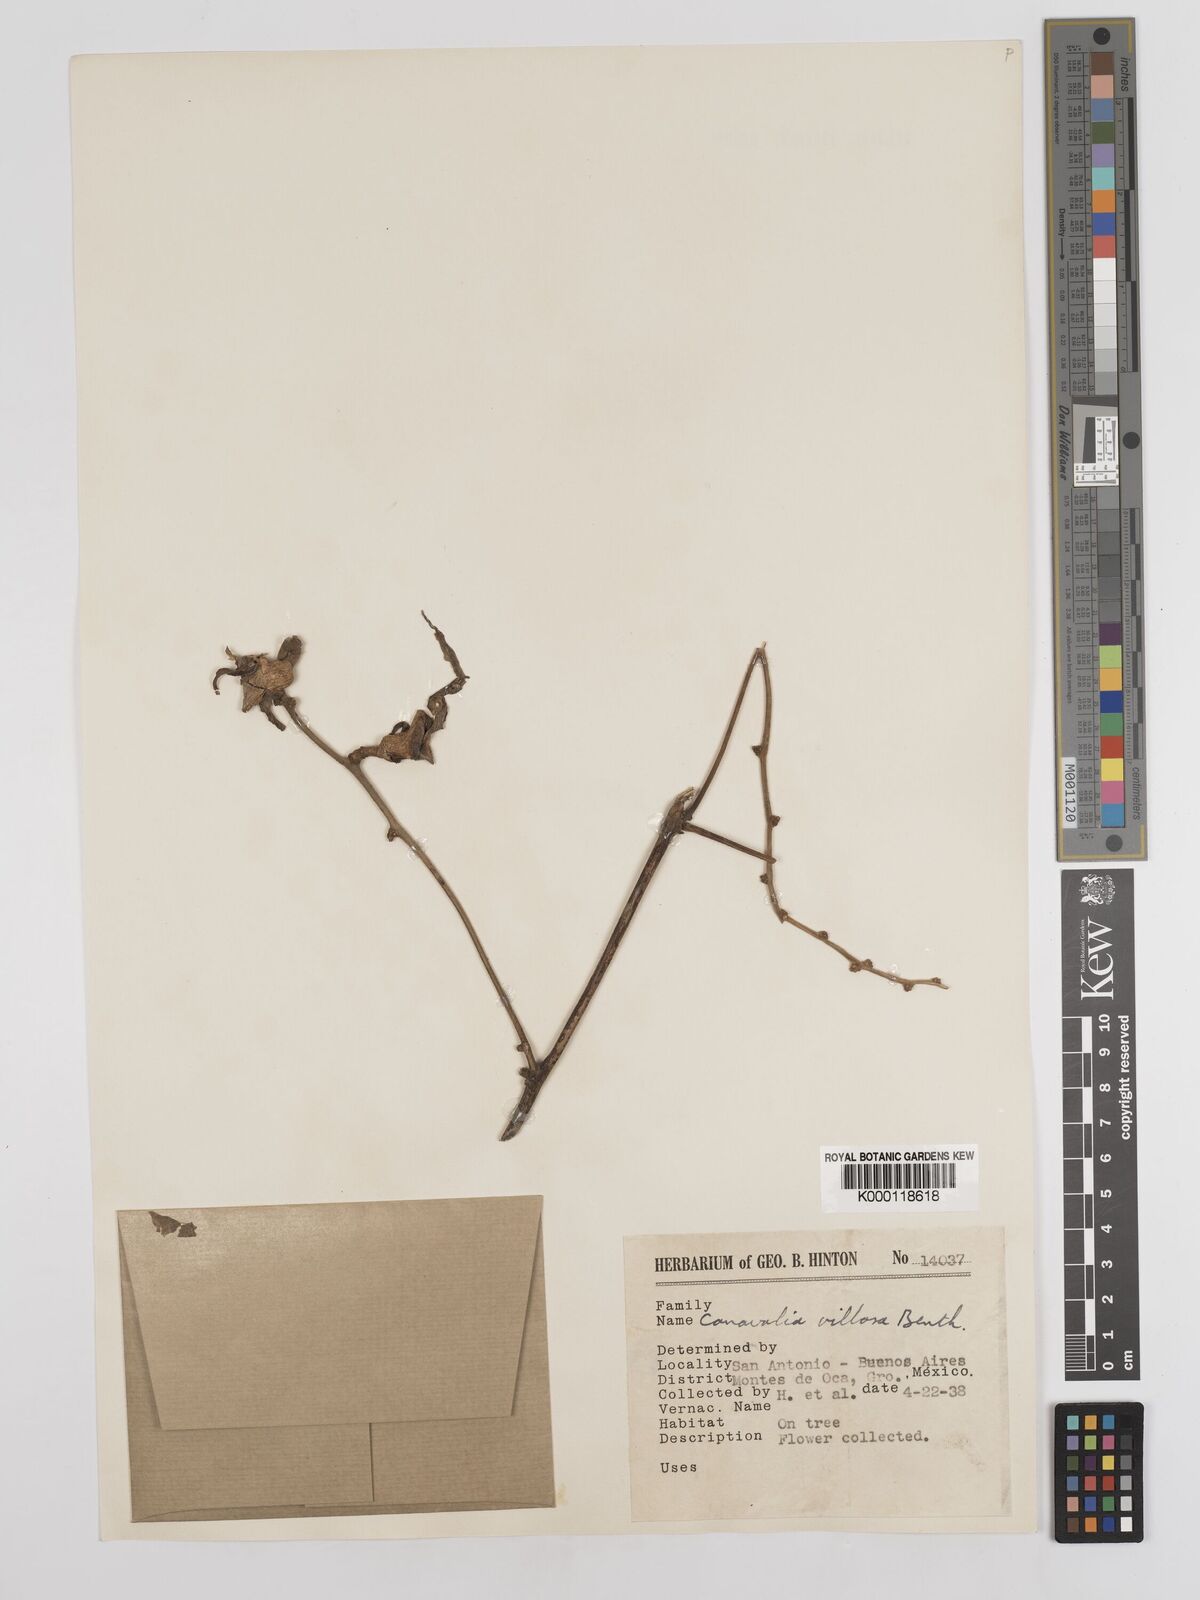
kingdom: Plantae
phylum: Tracheophyta
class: Magnoliopsida
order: Fabales
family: Fabaceae
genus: Canavalia
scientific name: Canavalia villosa
